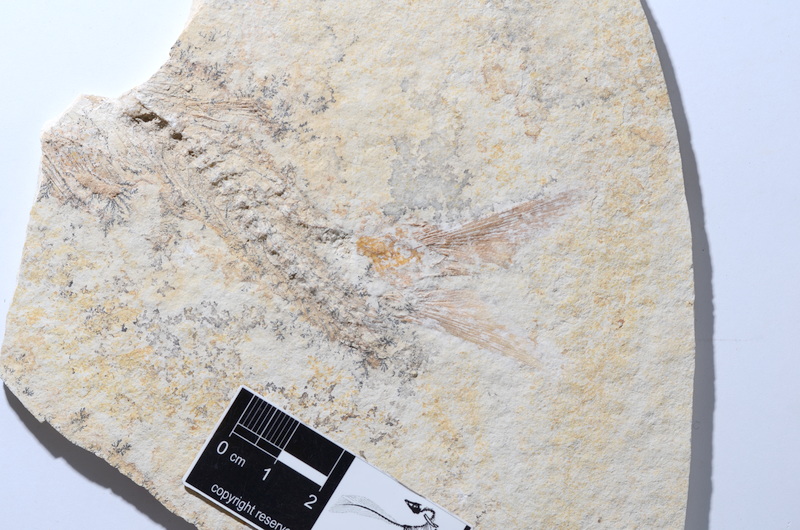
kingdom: Animalia
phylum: Chordata
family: Ascalaboidae
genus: Tharsis
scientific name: Tharsis dubius
